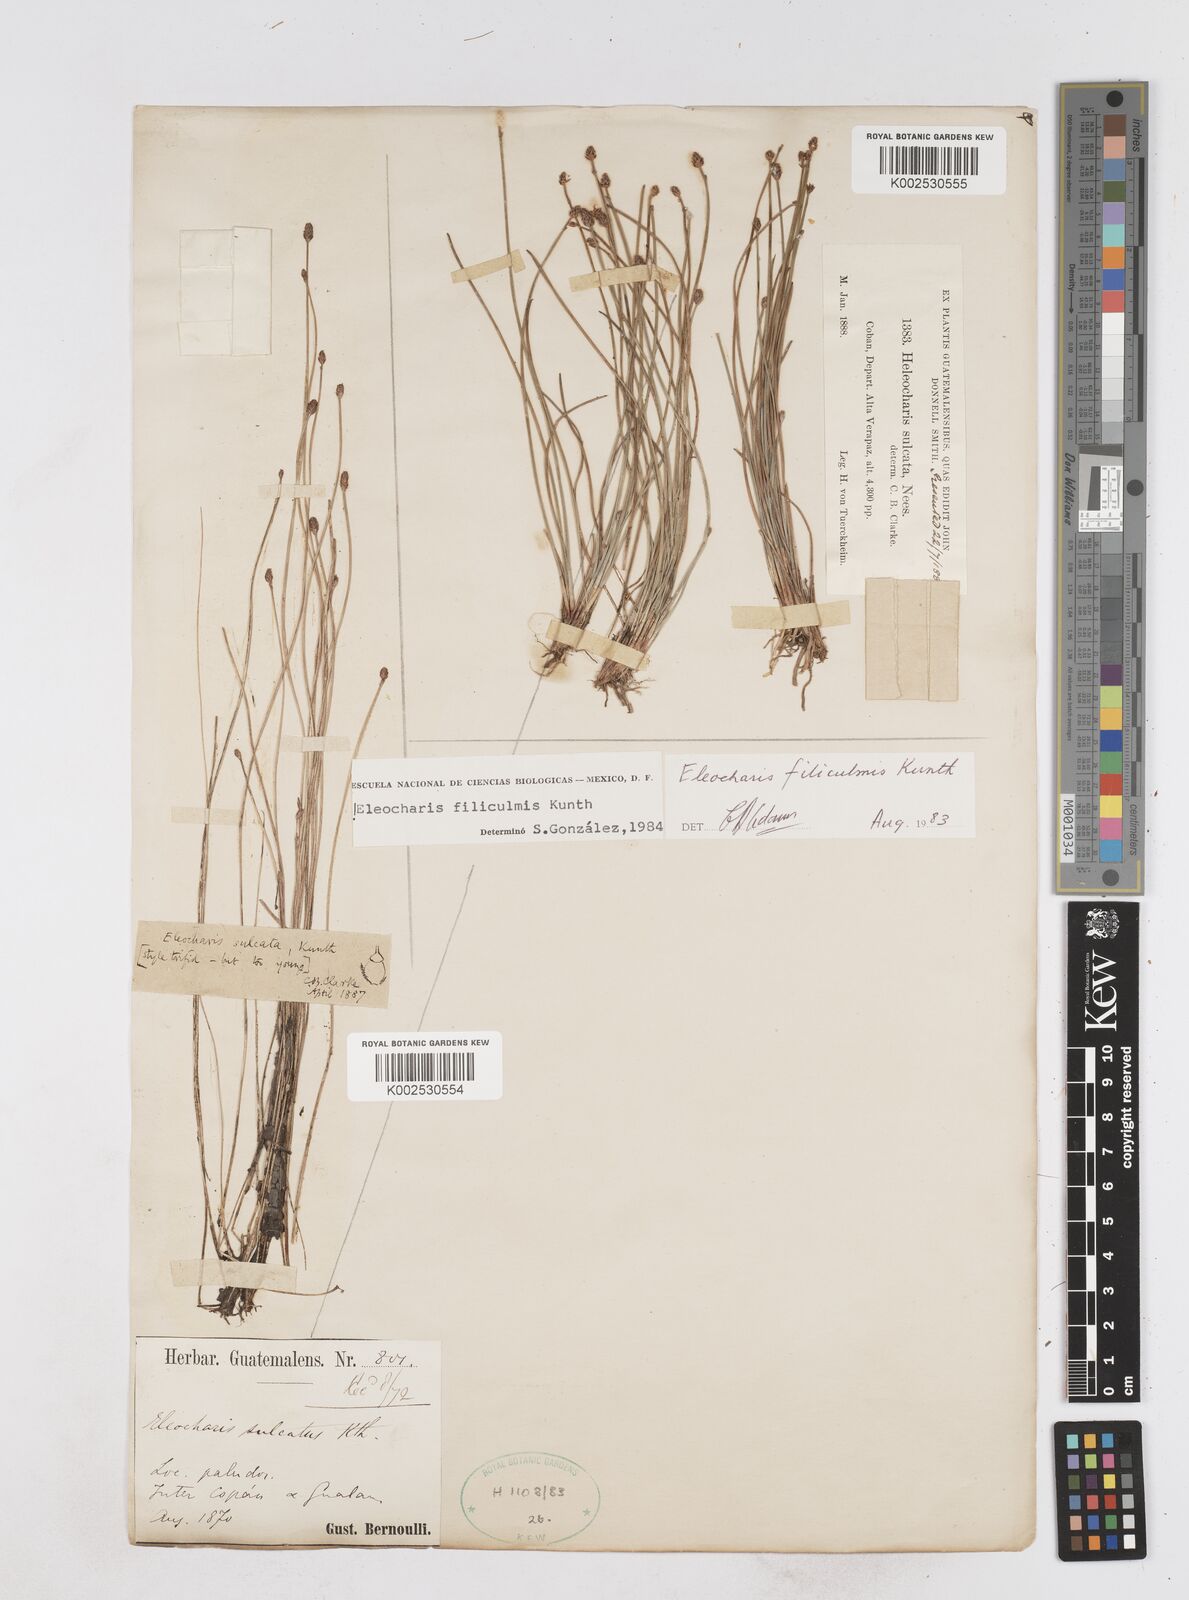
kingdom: Plantae
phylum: Tracheophyta
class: Liliopsida
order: Poales
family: Cyperaceae
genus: Eleocharis
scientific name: Eleocharis filiculmis
